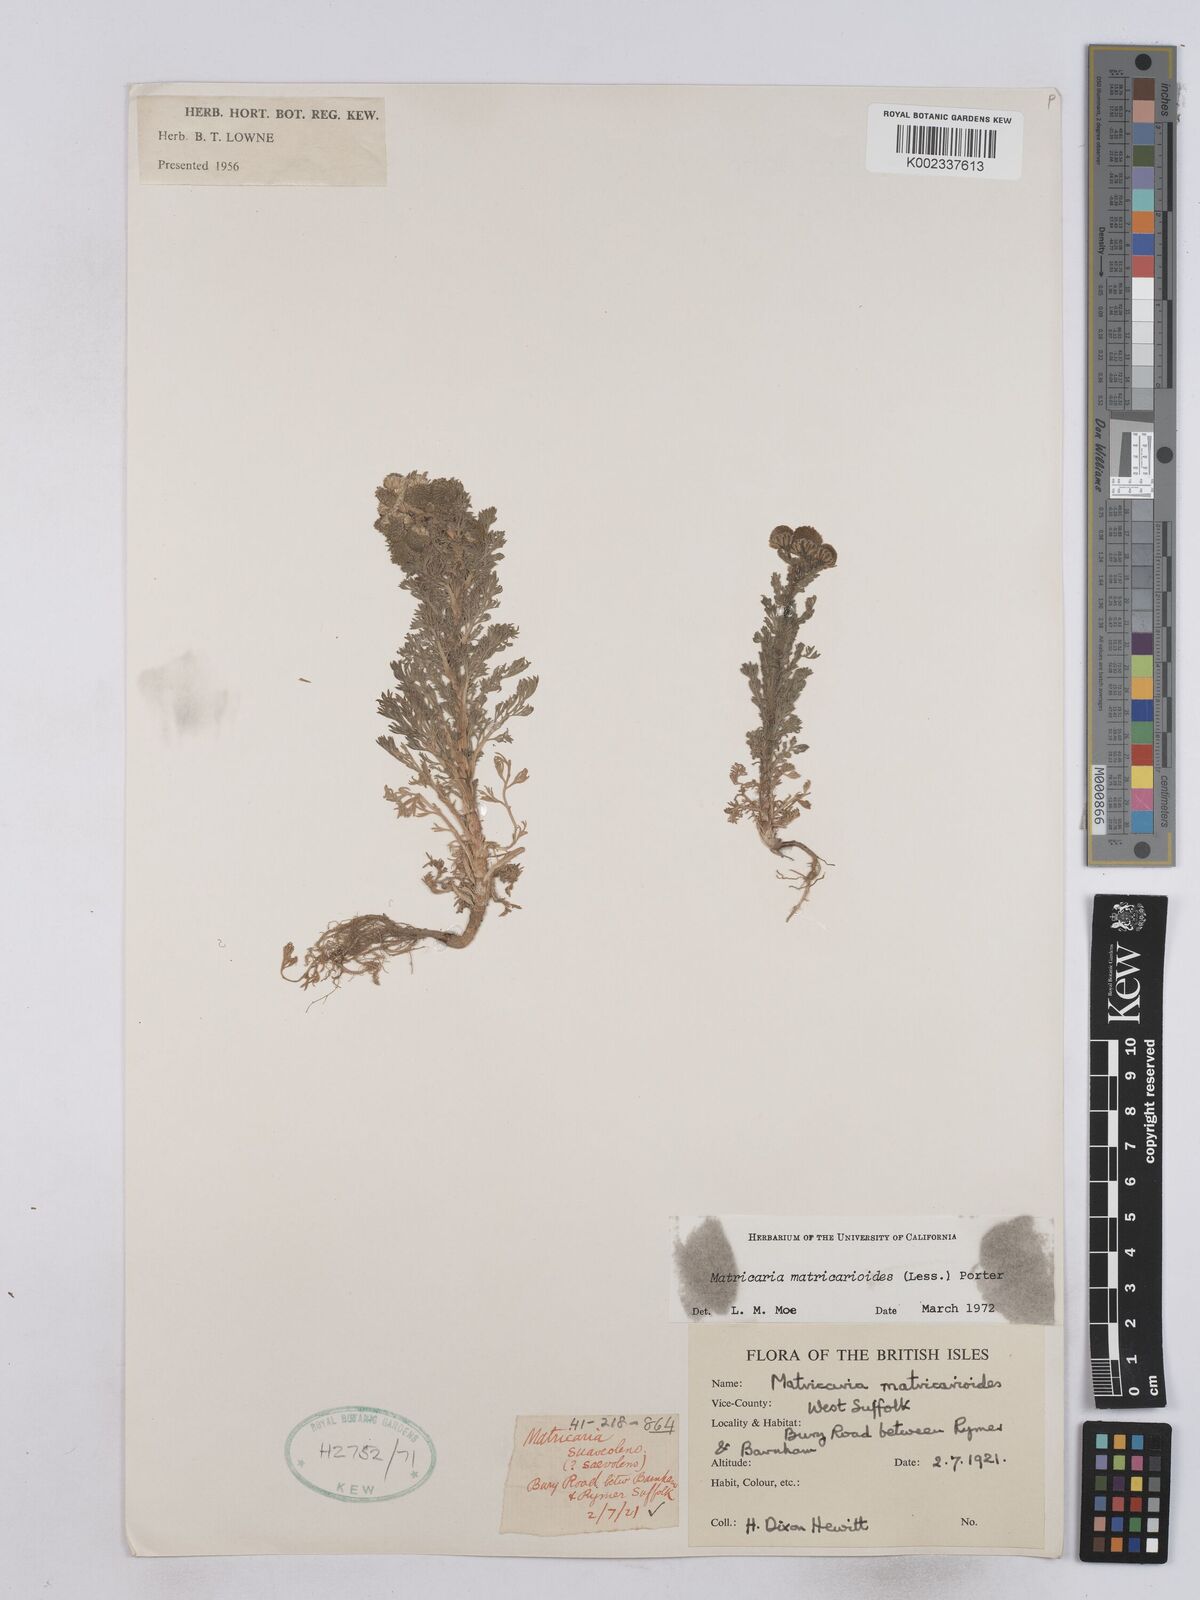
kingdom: Plantae
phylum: Tracheophyta
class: Magnoliopsida
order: Asterales
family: Asteraceae
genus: Matricaria
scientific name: Matricaria discoidea
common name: Disc mayweed
